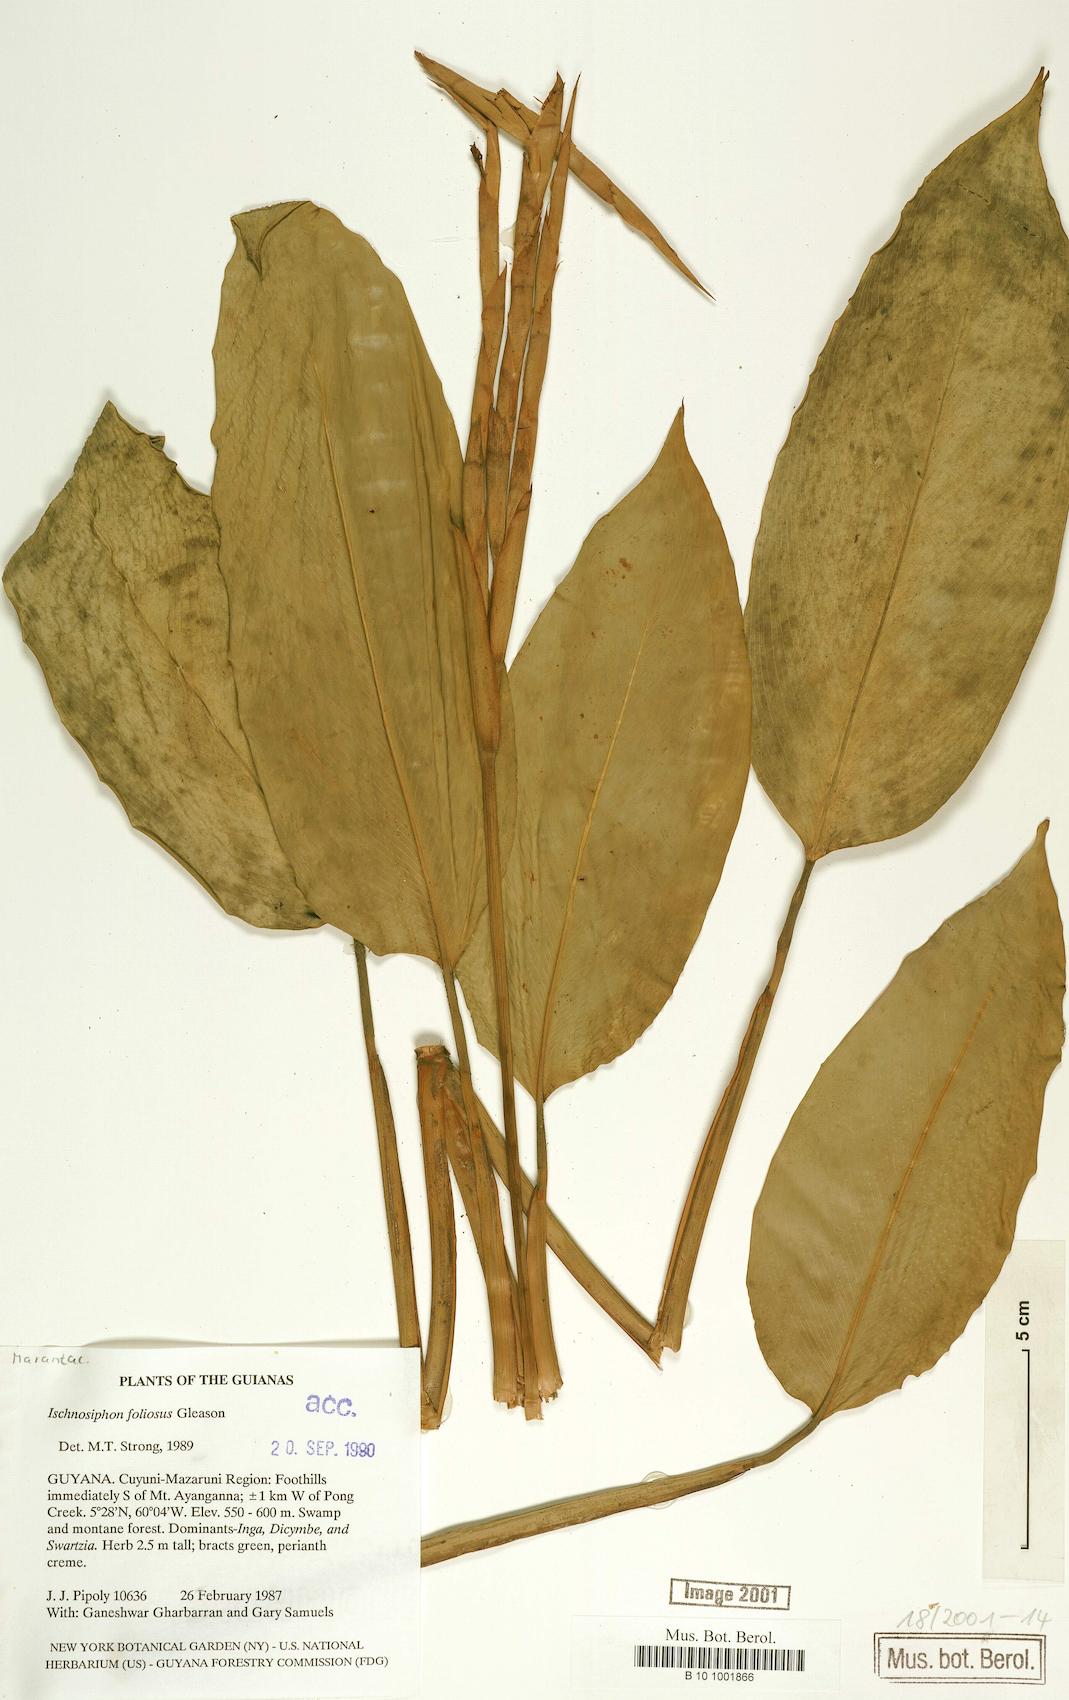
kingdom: Plantae
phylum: Tracheophyta
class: Liliopsida
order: Zingiberales
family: Marantaceae
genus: Ischnosiphon
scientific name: Ischnosiphon foliosus
